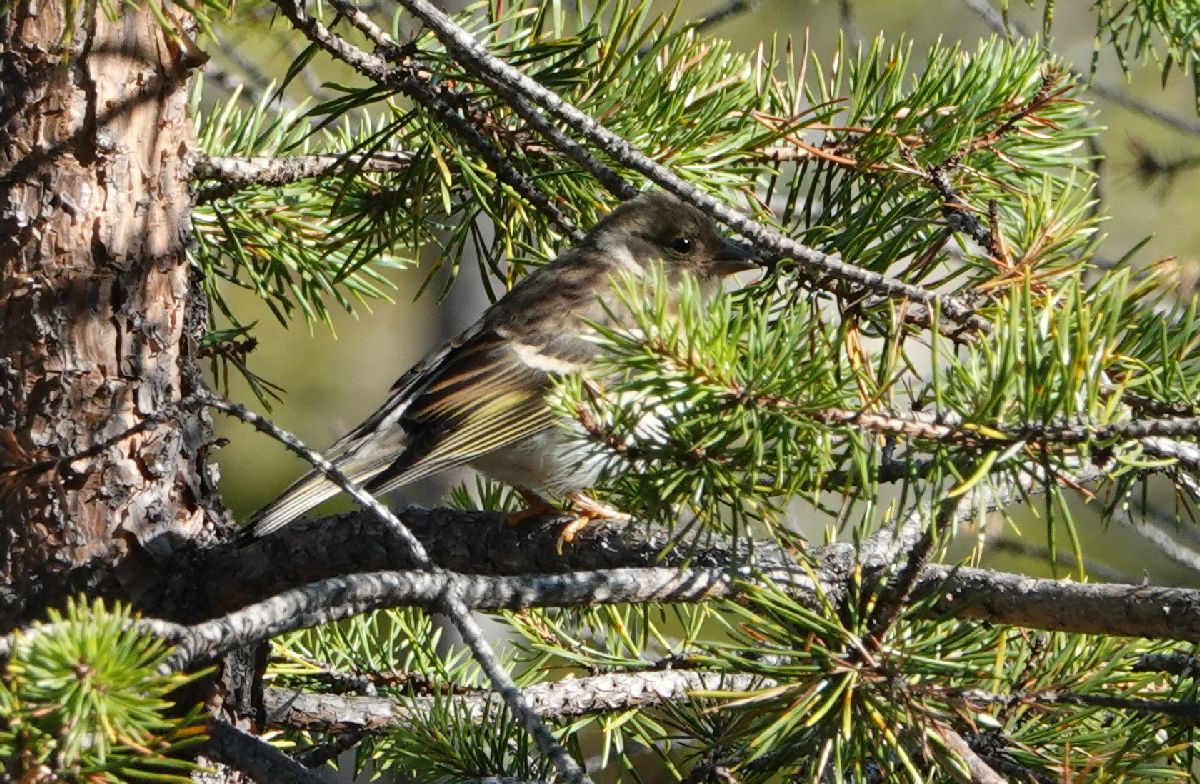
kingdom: Animalia
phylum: Chordata
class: Aves
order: Passeriformes
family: Fringillidae
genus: Fringilla
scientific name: Fringilla montifringilla
